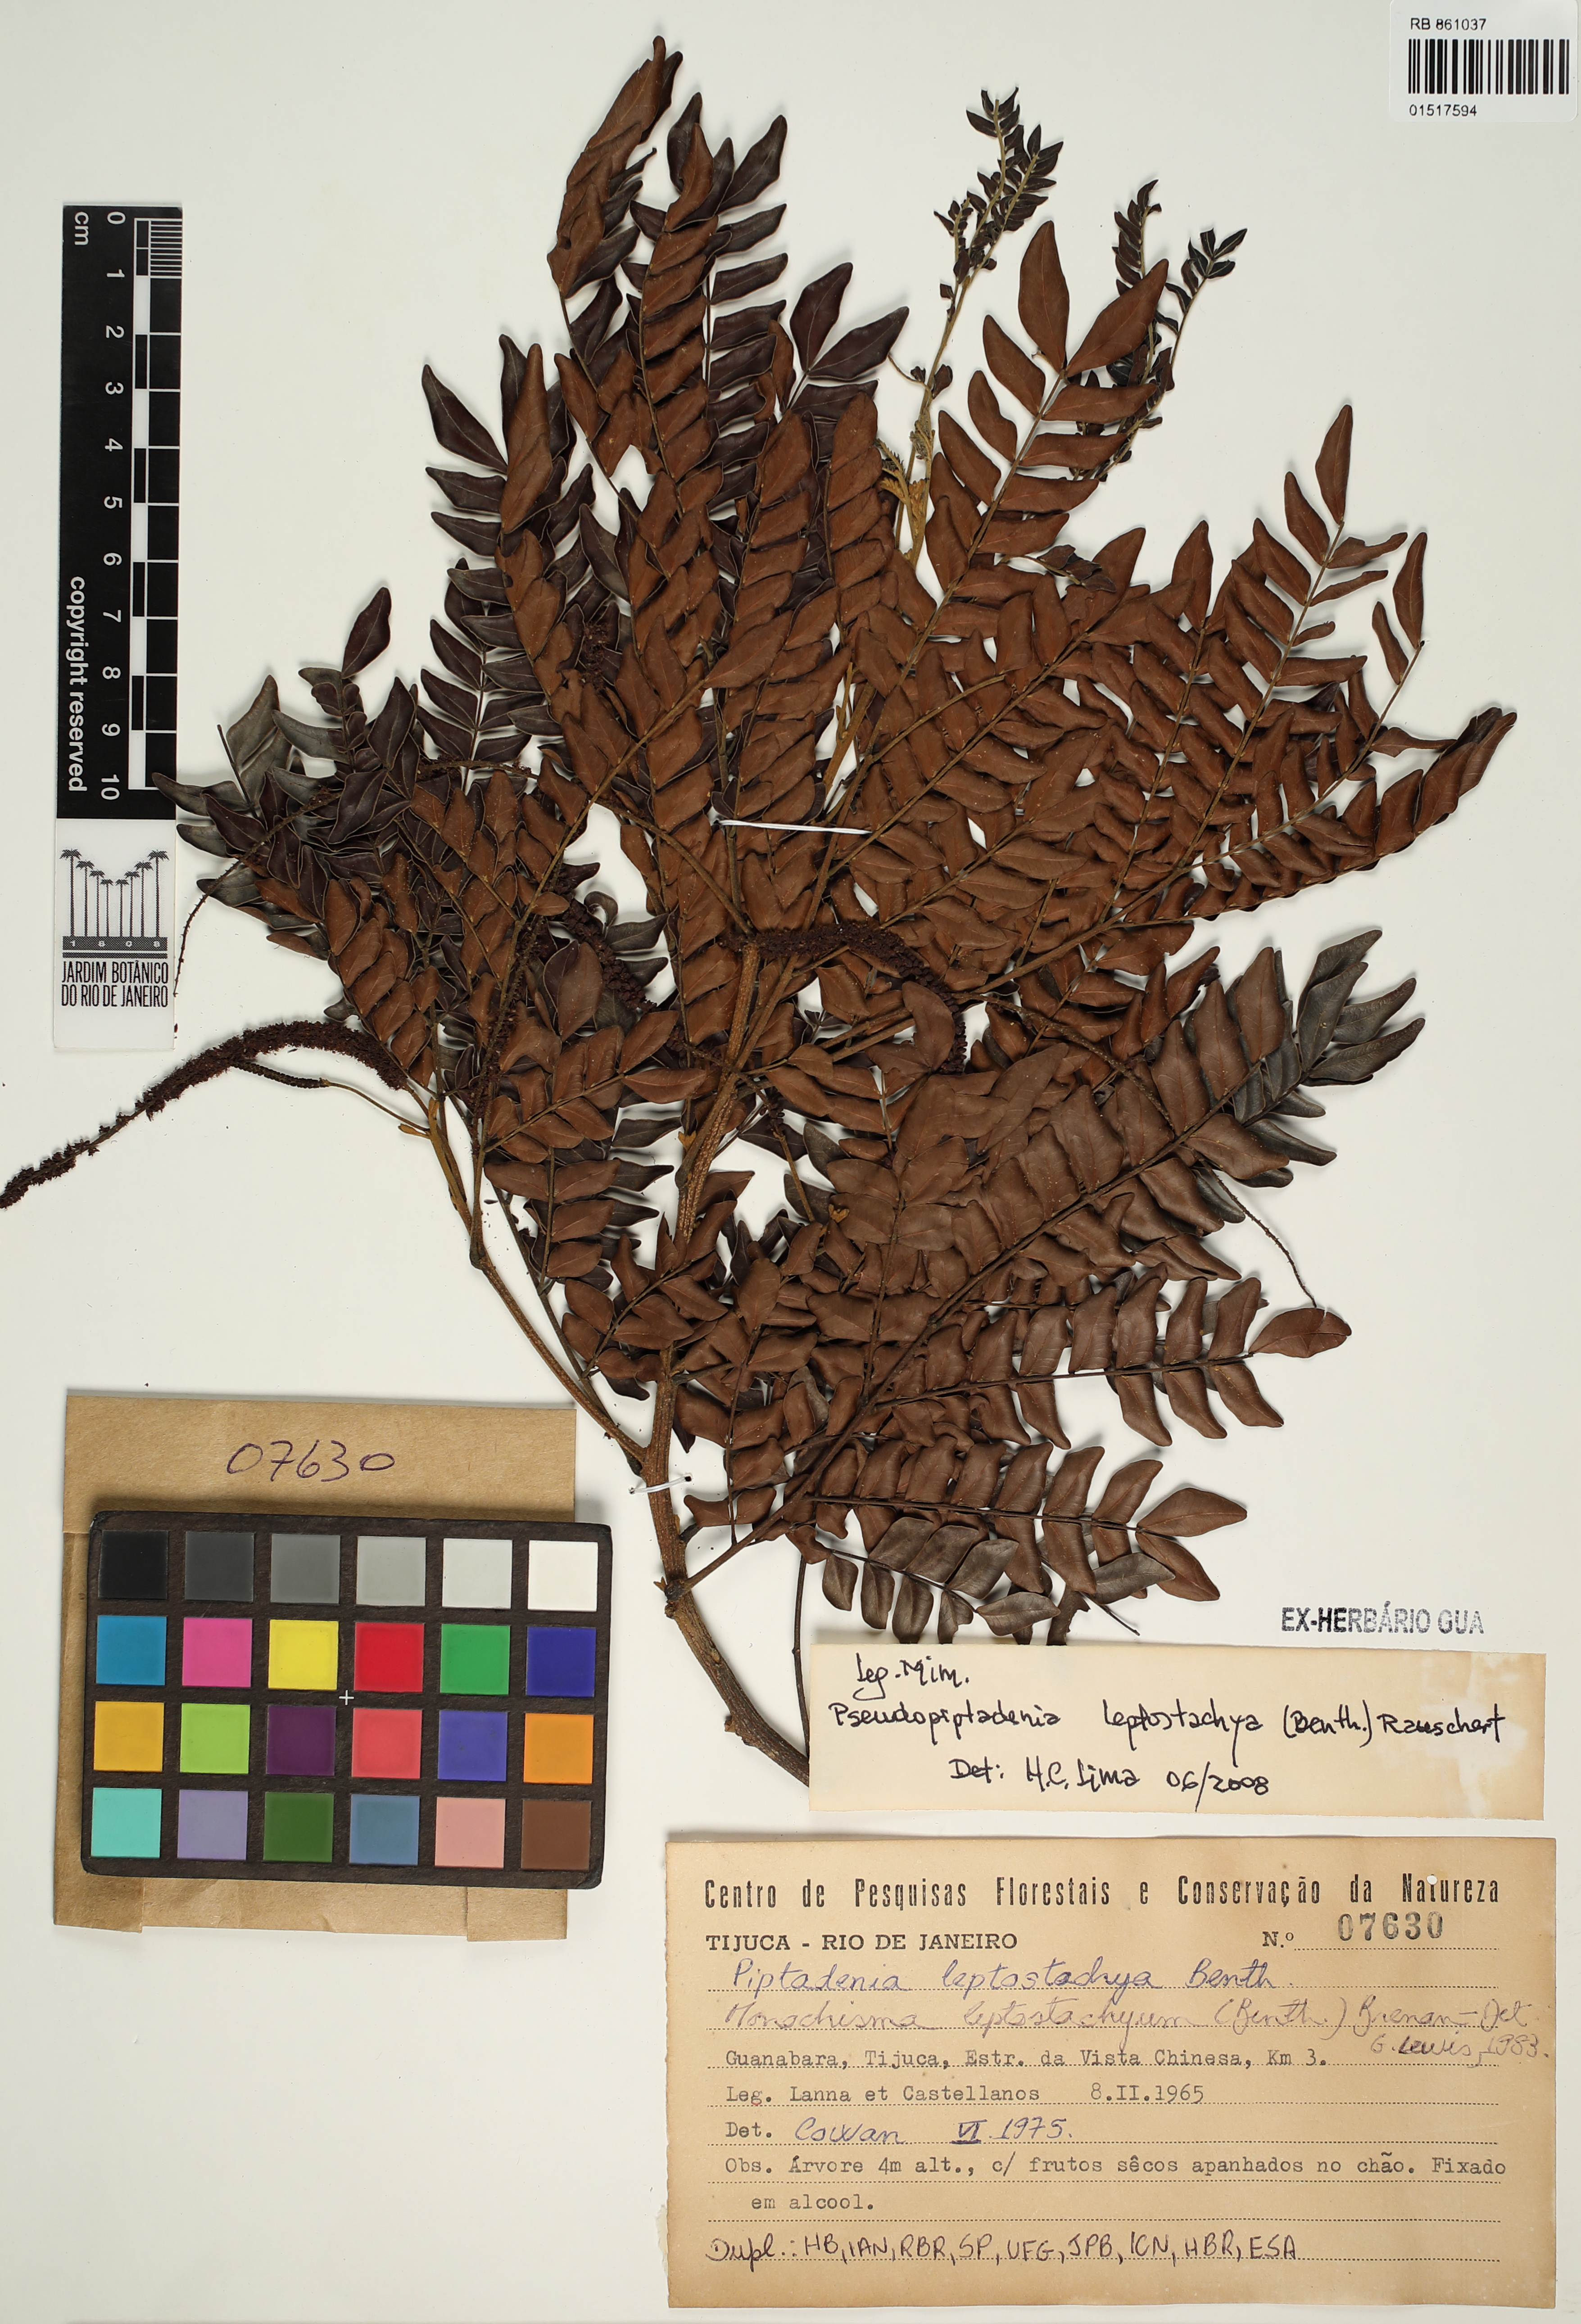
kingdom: Plantae
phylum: Tracheophyta
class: Magnoliopsida
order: Fabales
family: Fabaceae
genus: Pseudopiptadenia
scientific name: Pseudopiptadenia leptostachya
